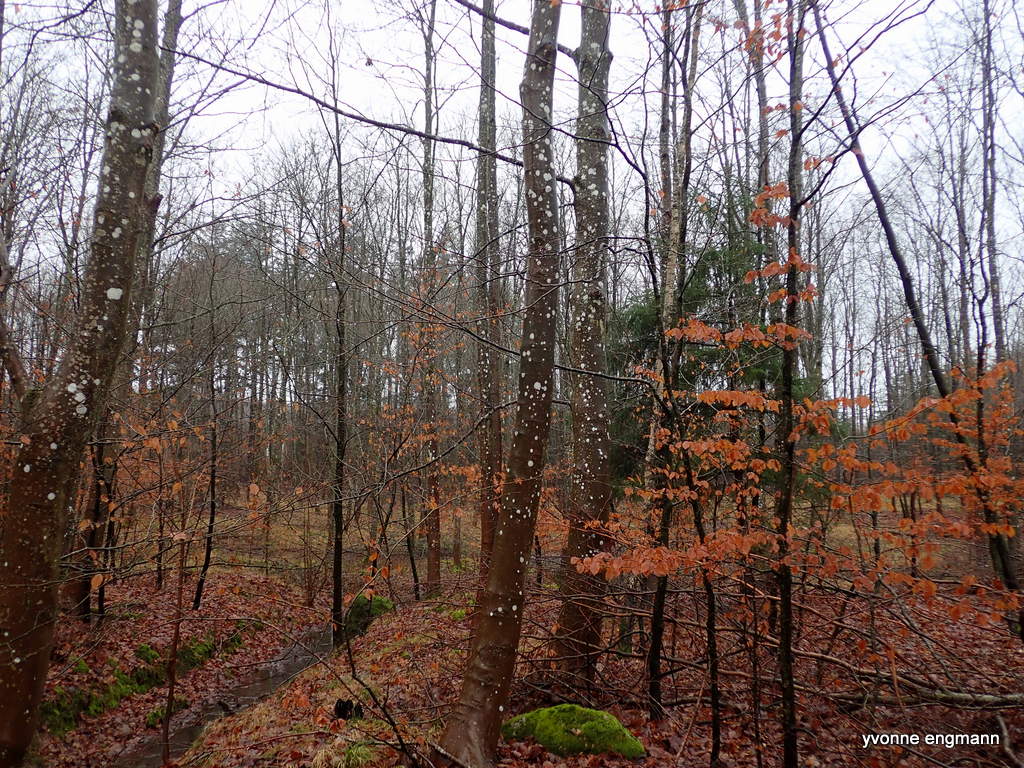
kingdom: Fungi
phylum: Ascomycota
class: Lecanoromycetes
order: Ostropales
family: Phlyctidaceae
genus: Phlyctis
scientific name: Phlyctis argena
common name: almindelig sølvlav
